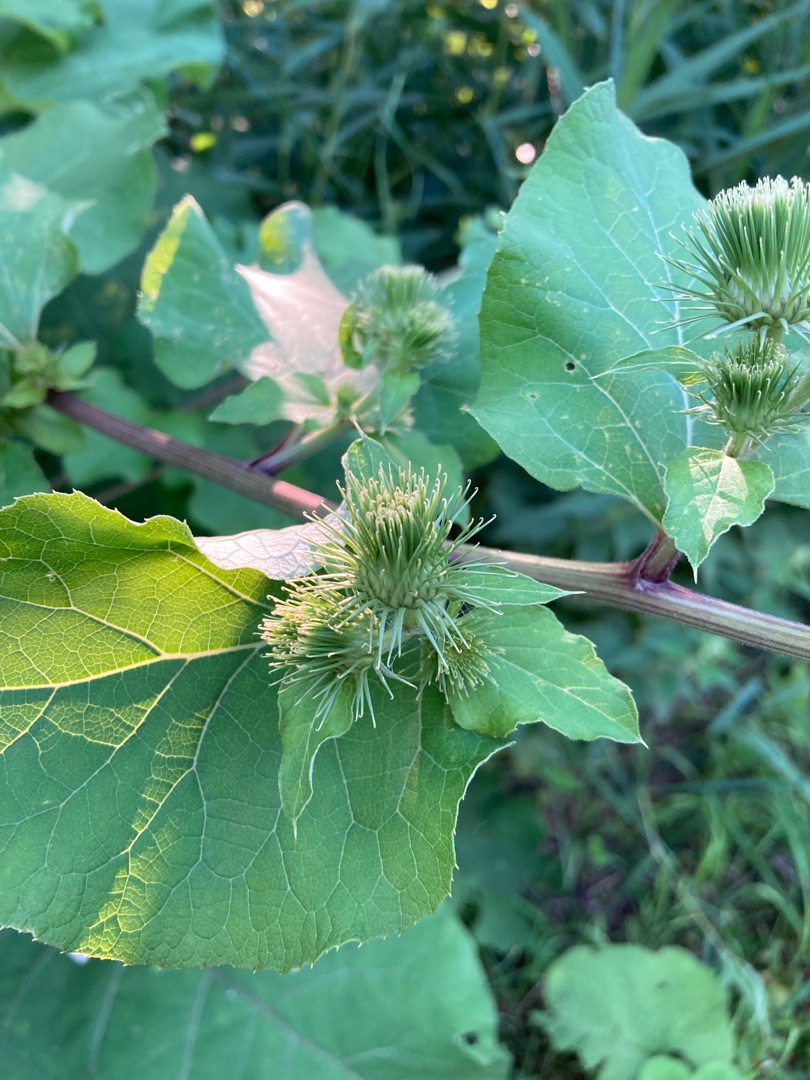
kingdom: Plantae
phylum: Tracheophyta
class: Magnoliopsida
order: Asterales
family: Asteraceae
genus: Arctium
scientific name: Arctium lappa
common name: Glat burre
